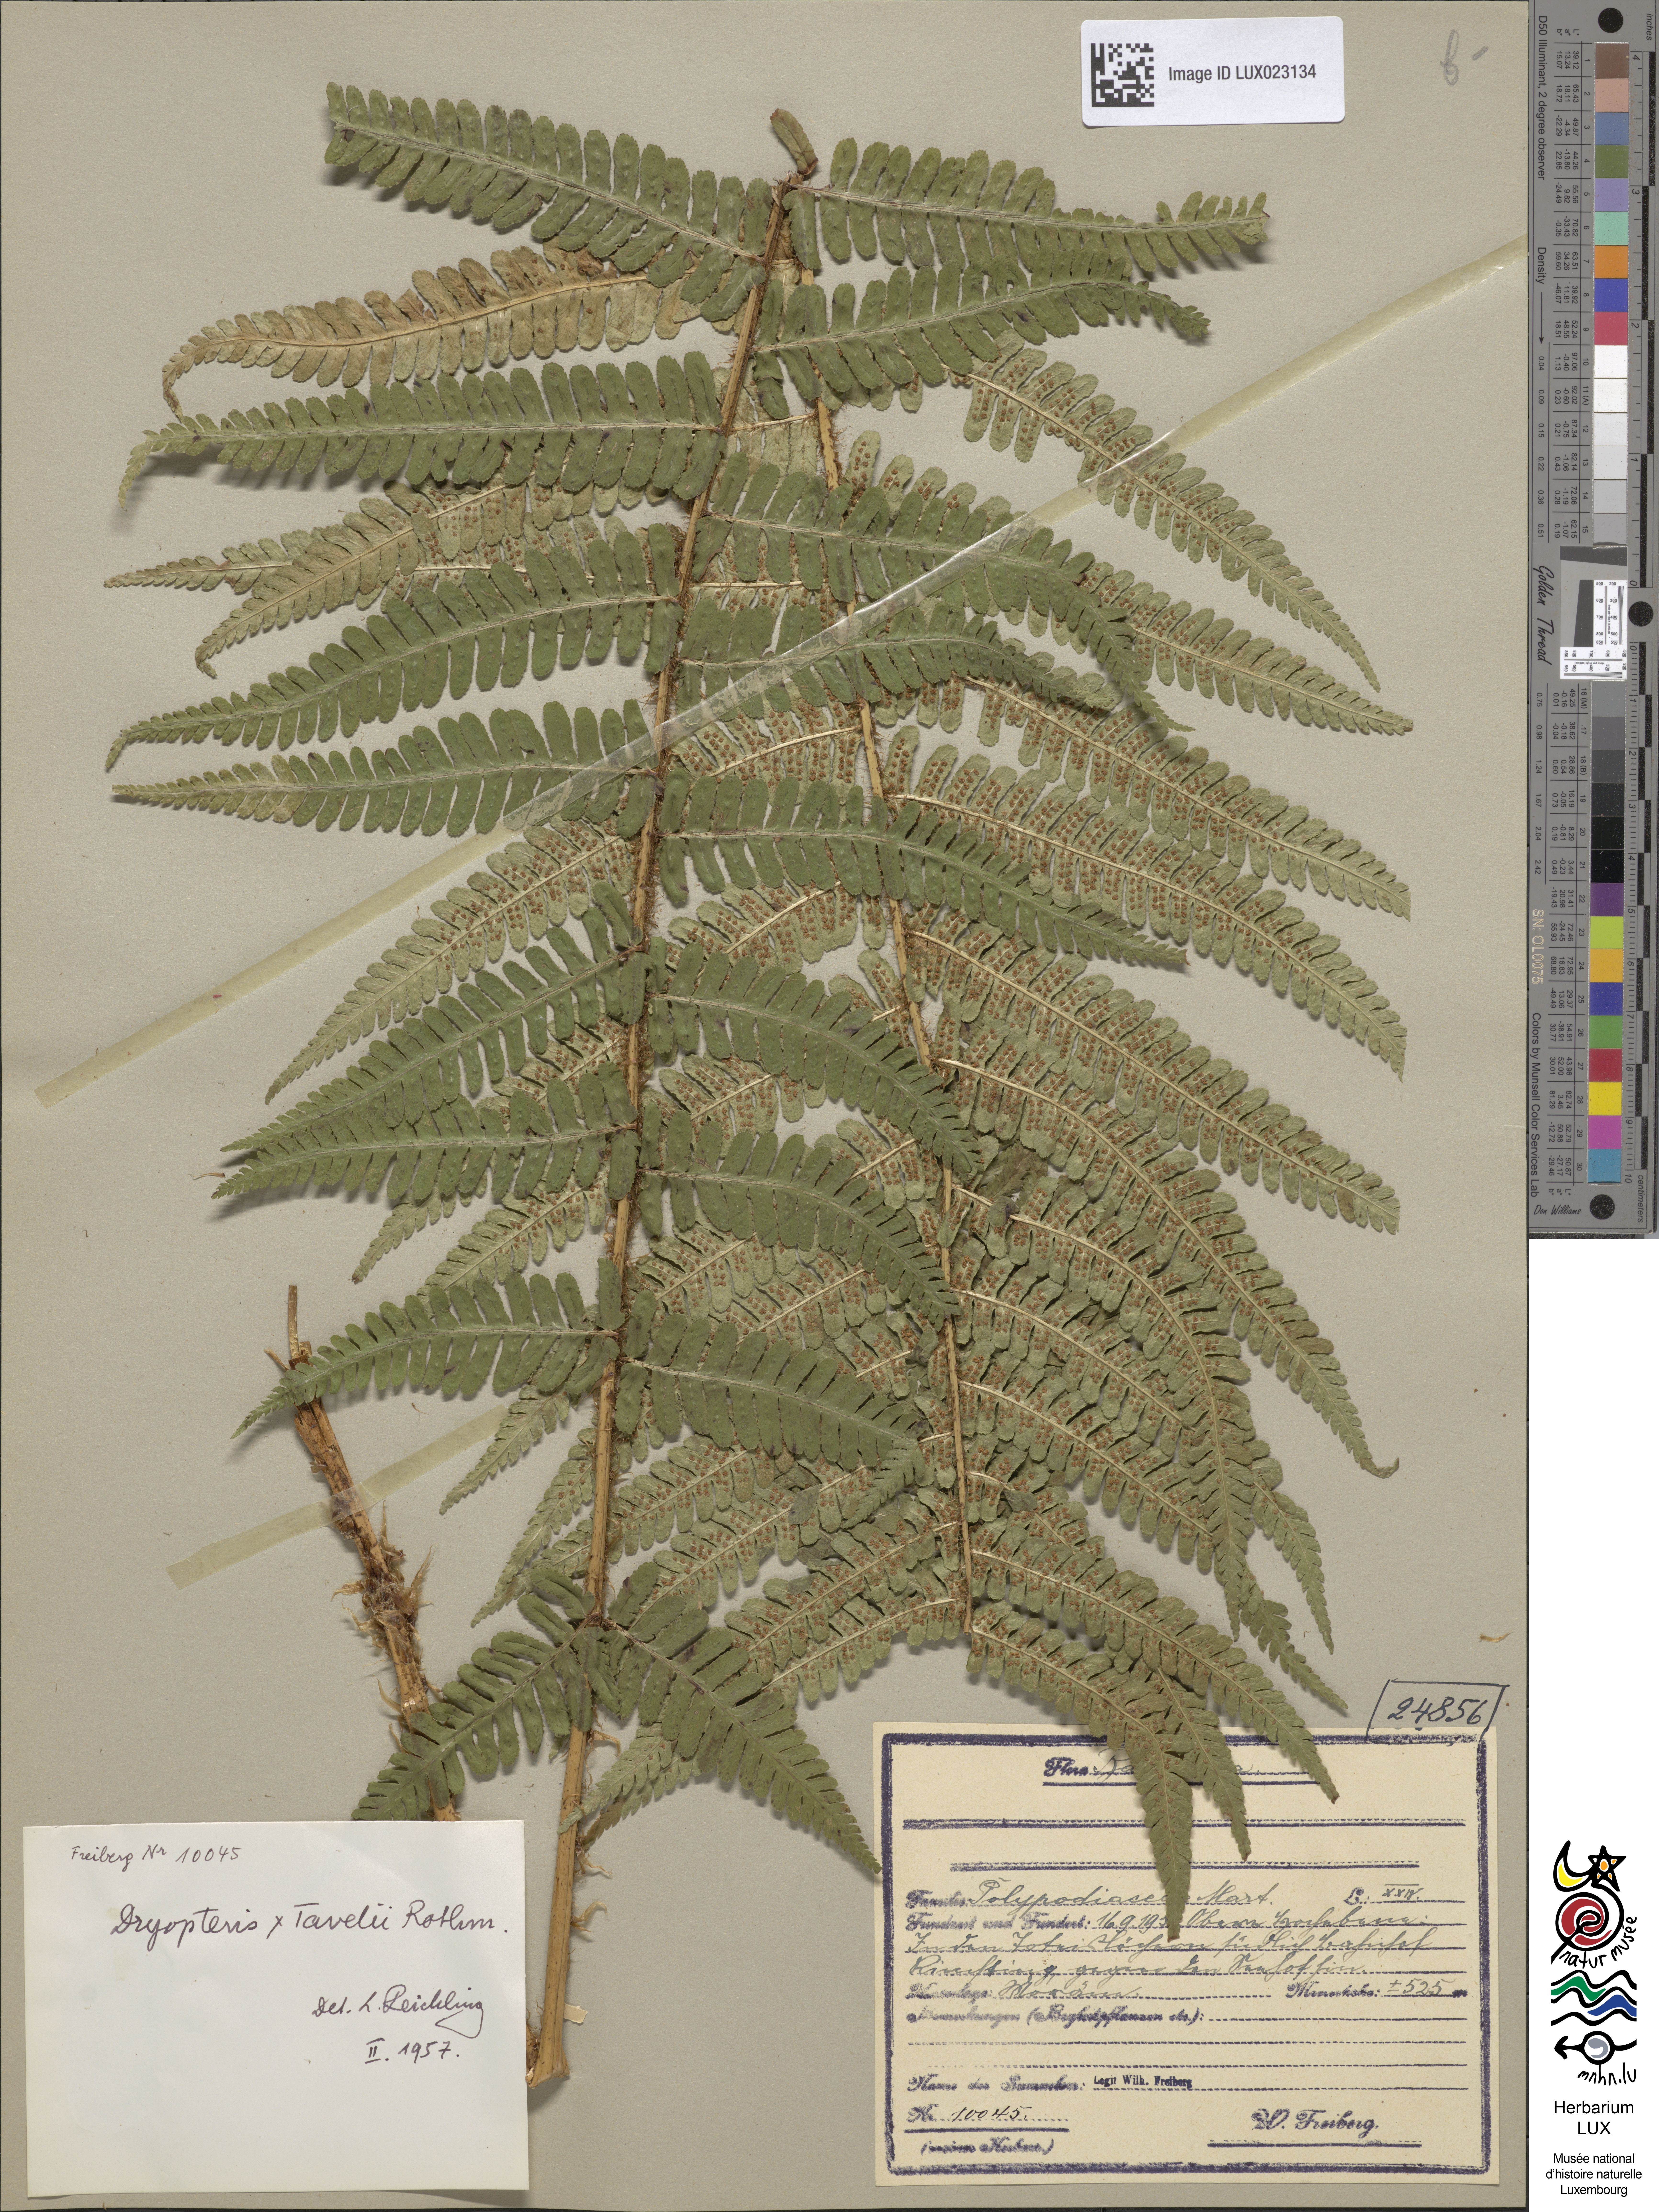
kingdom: Plantae
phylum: Tracheophyta
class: Polypodiopsida
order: Polypodiales
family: Dryopteridaceae
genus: Dryopteris
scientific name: Dryopteris borreri
